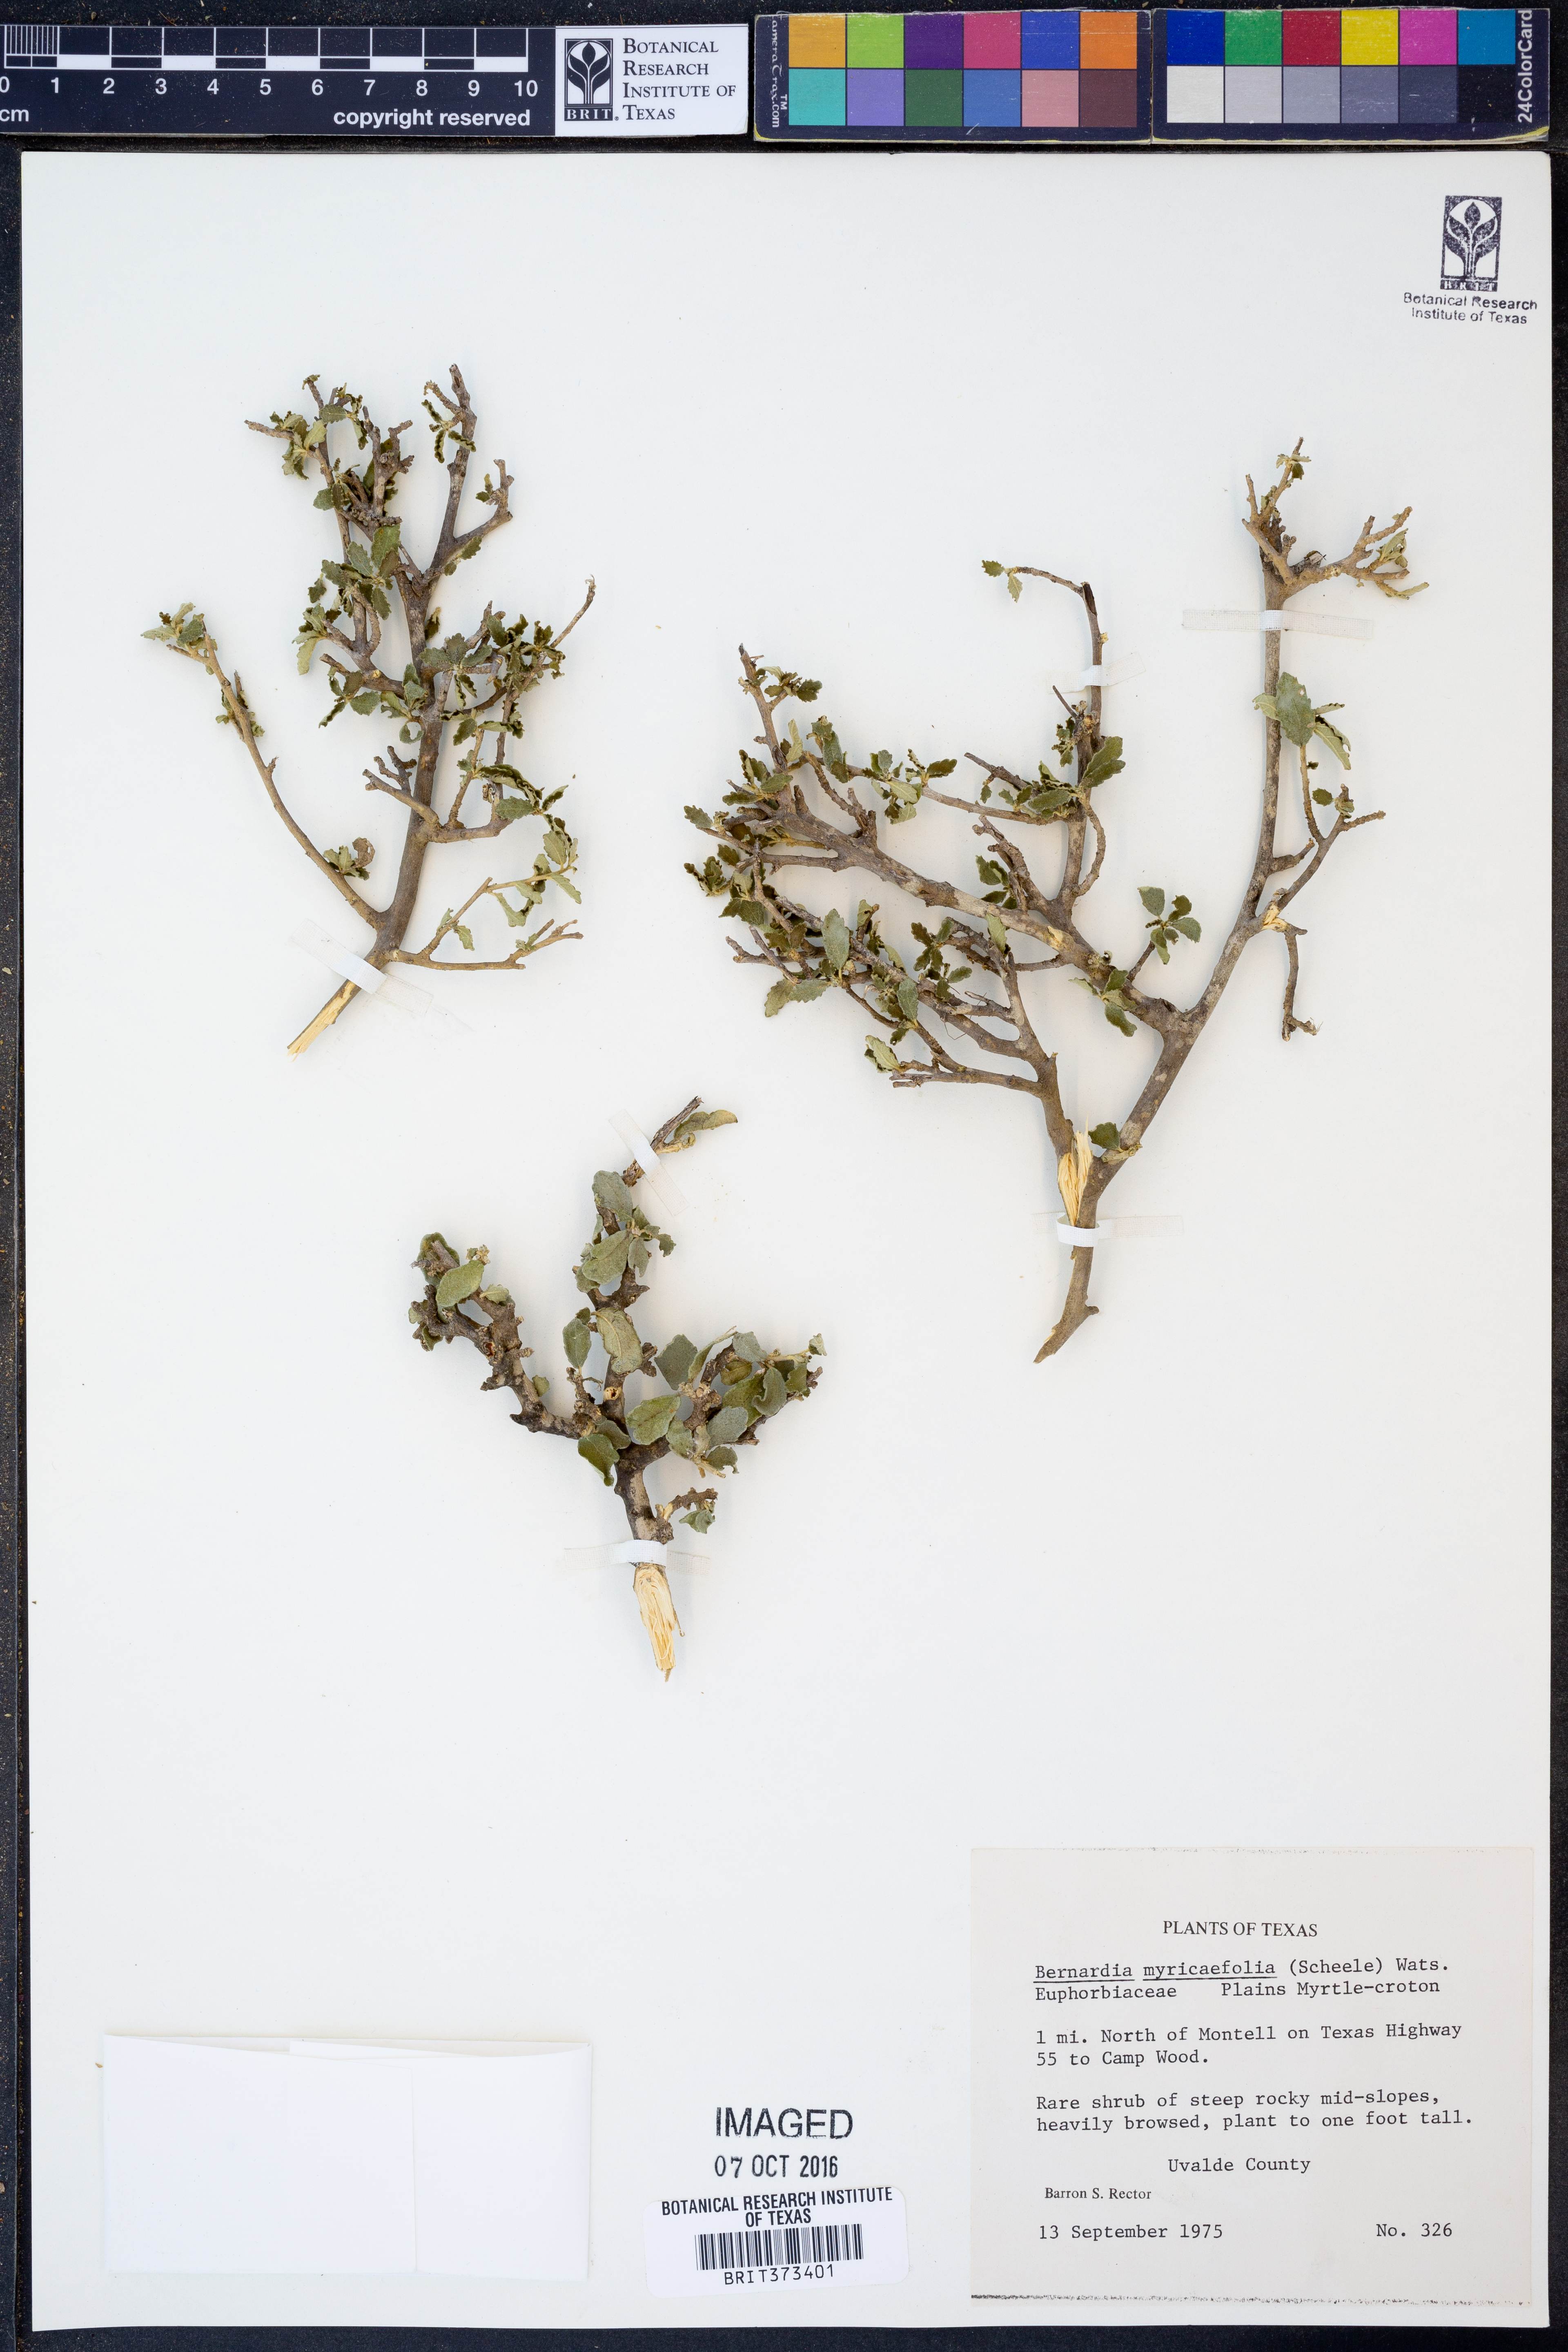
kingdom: Plantae
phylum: Tracheophyta
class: Magnoliopsida
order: Malpighiales
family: Euphorbiaceae
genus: Bernardia
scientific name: Bernardia myricifolia
